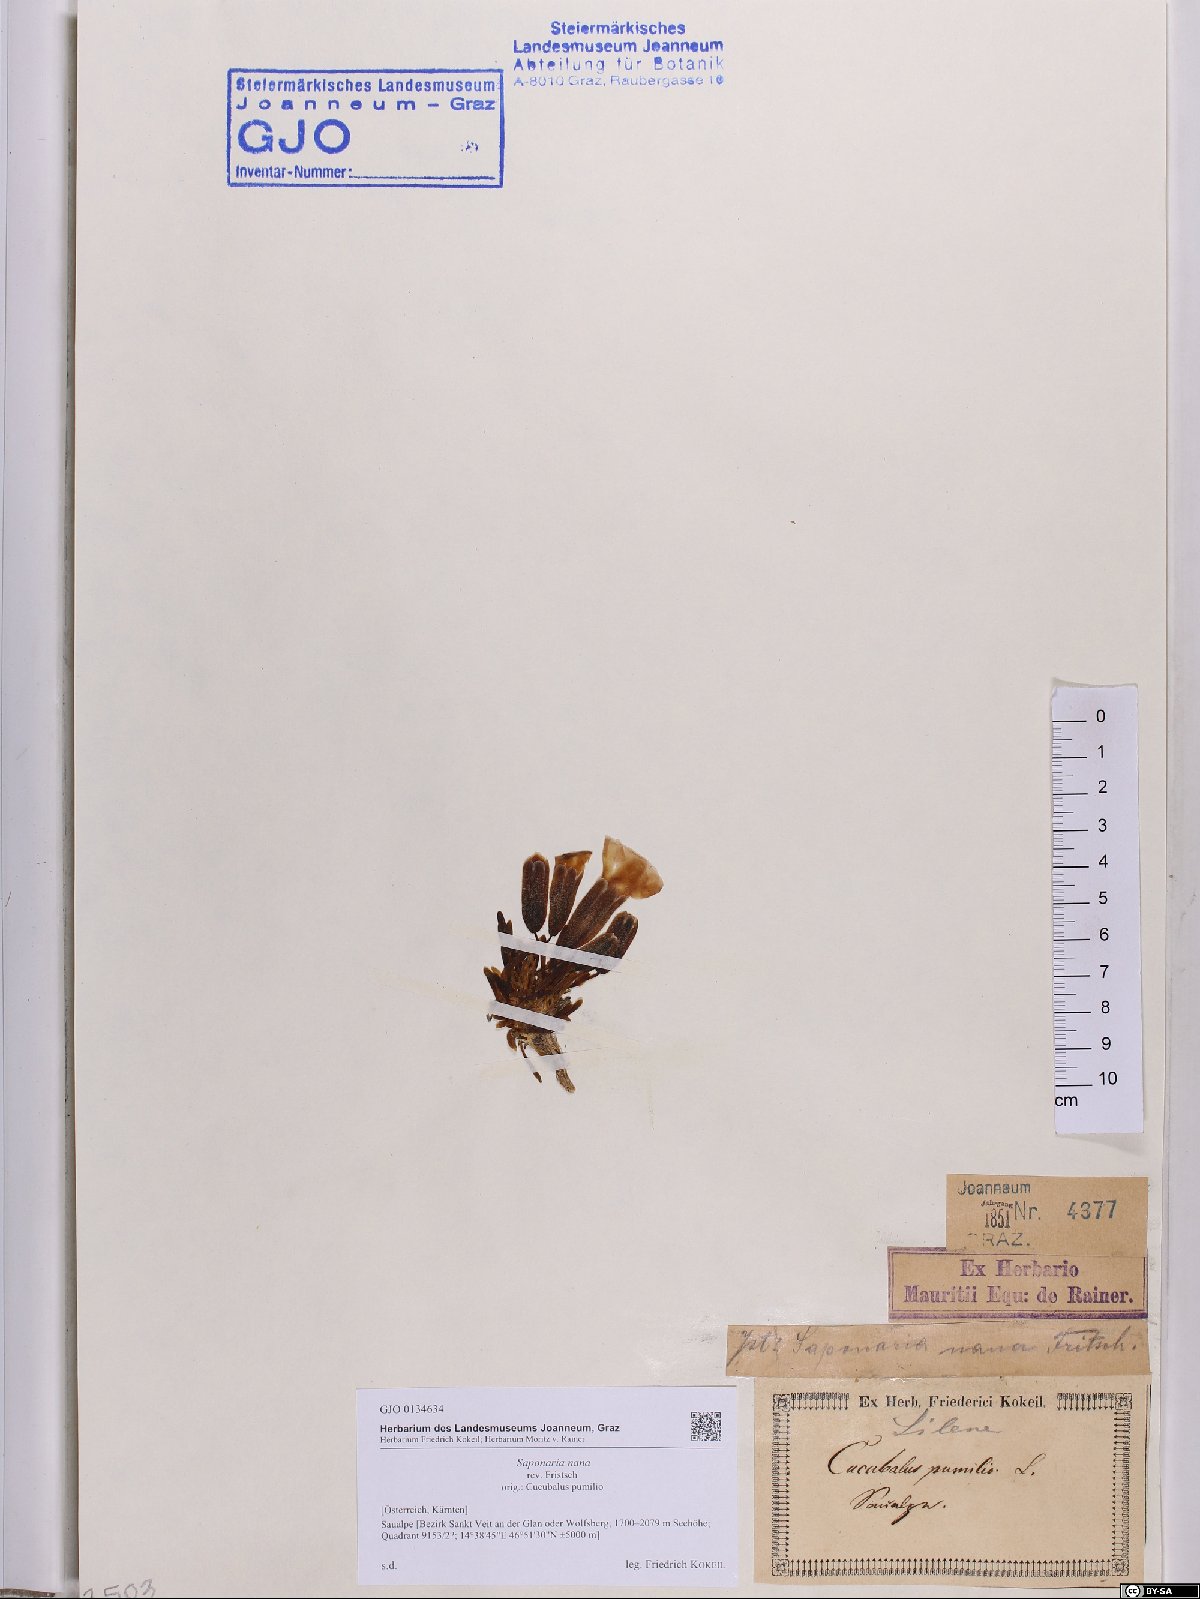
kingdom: Plantae
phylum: Tracheophyta
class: Magnoliopsida
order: Caryophyllales
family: Caryophyllaceae
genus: Saponaria
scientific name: Saponaria pumila
